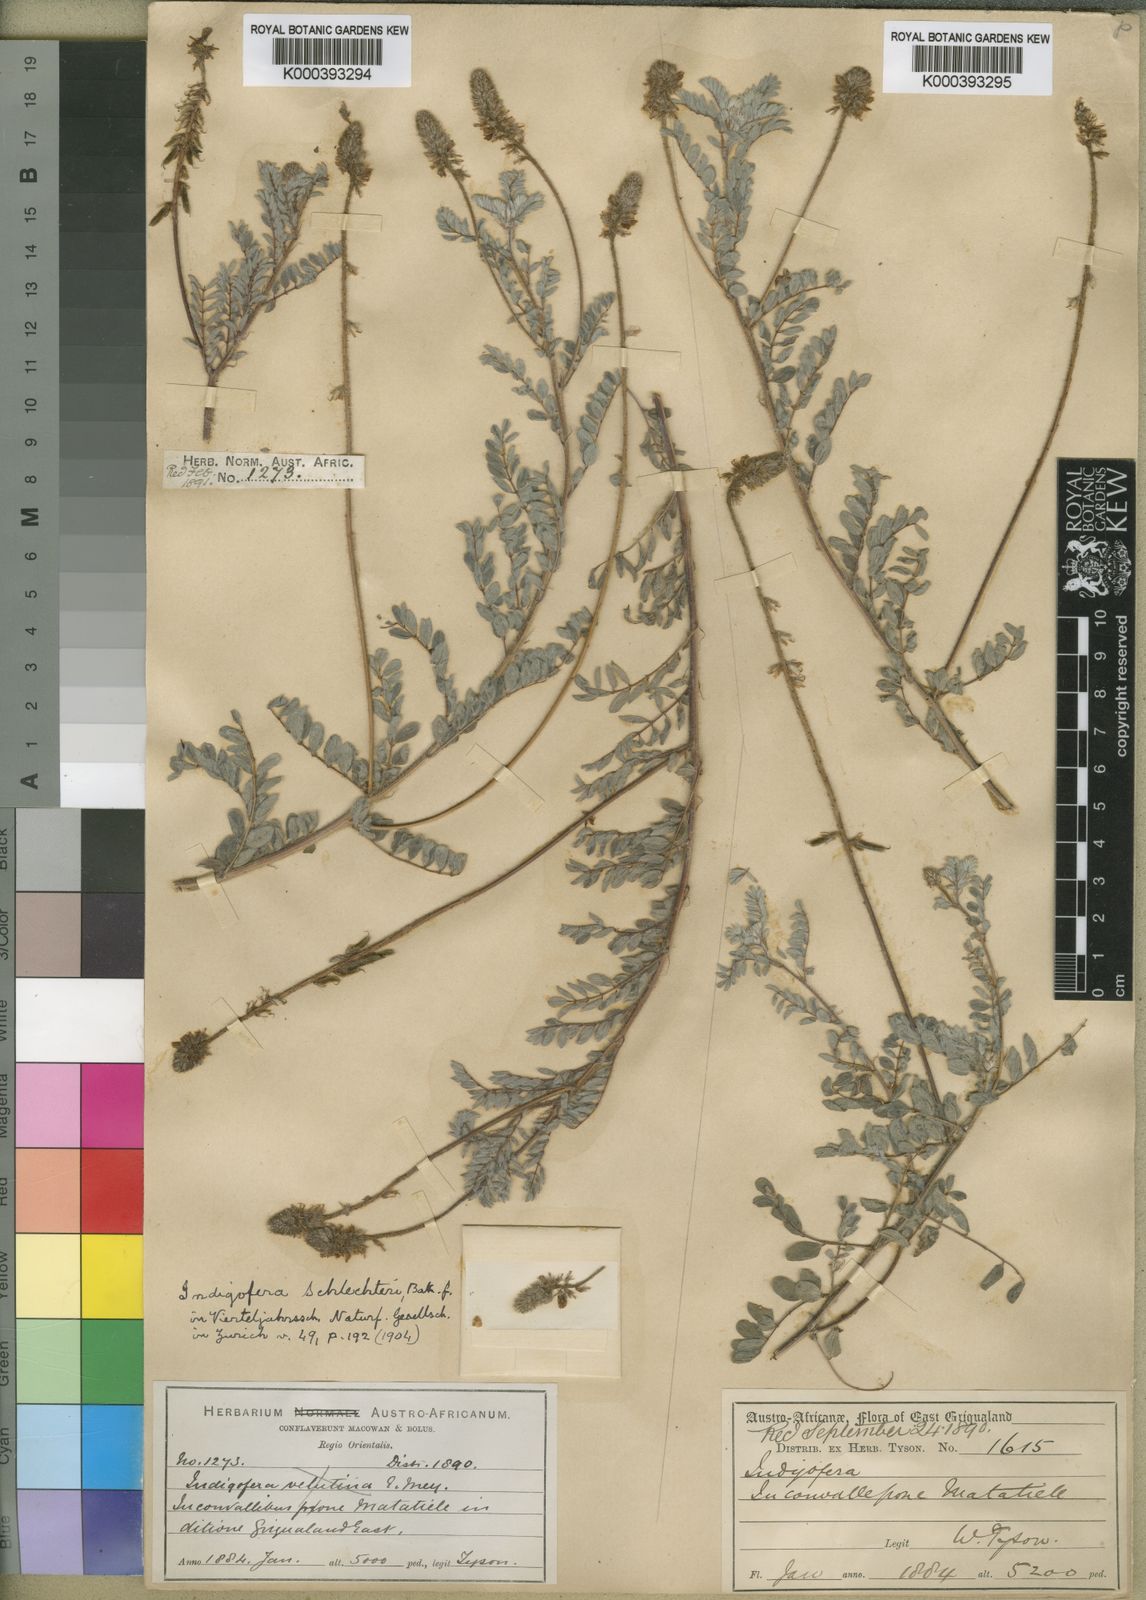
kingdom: Plantae
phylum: Tracheophyta
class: Magnoliopsida
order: Fabales
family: Fabaceae
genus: Indigofera
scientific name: Indigofera longebarbata
